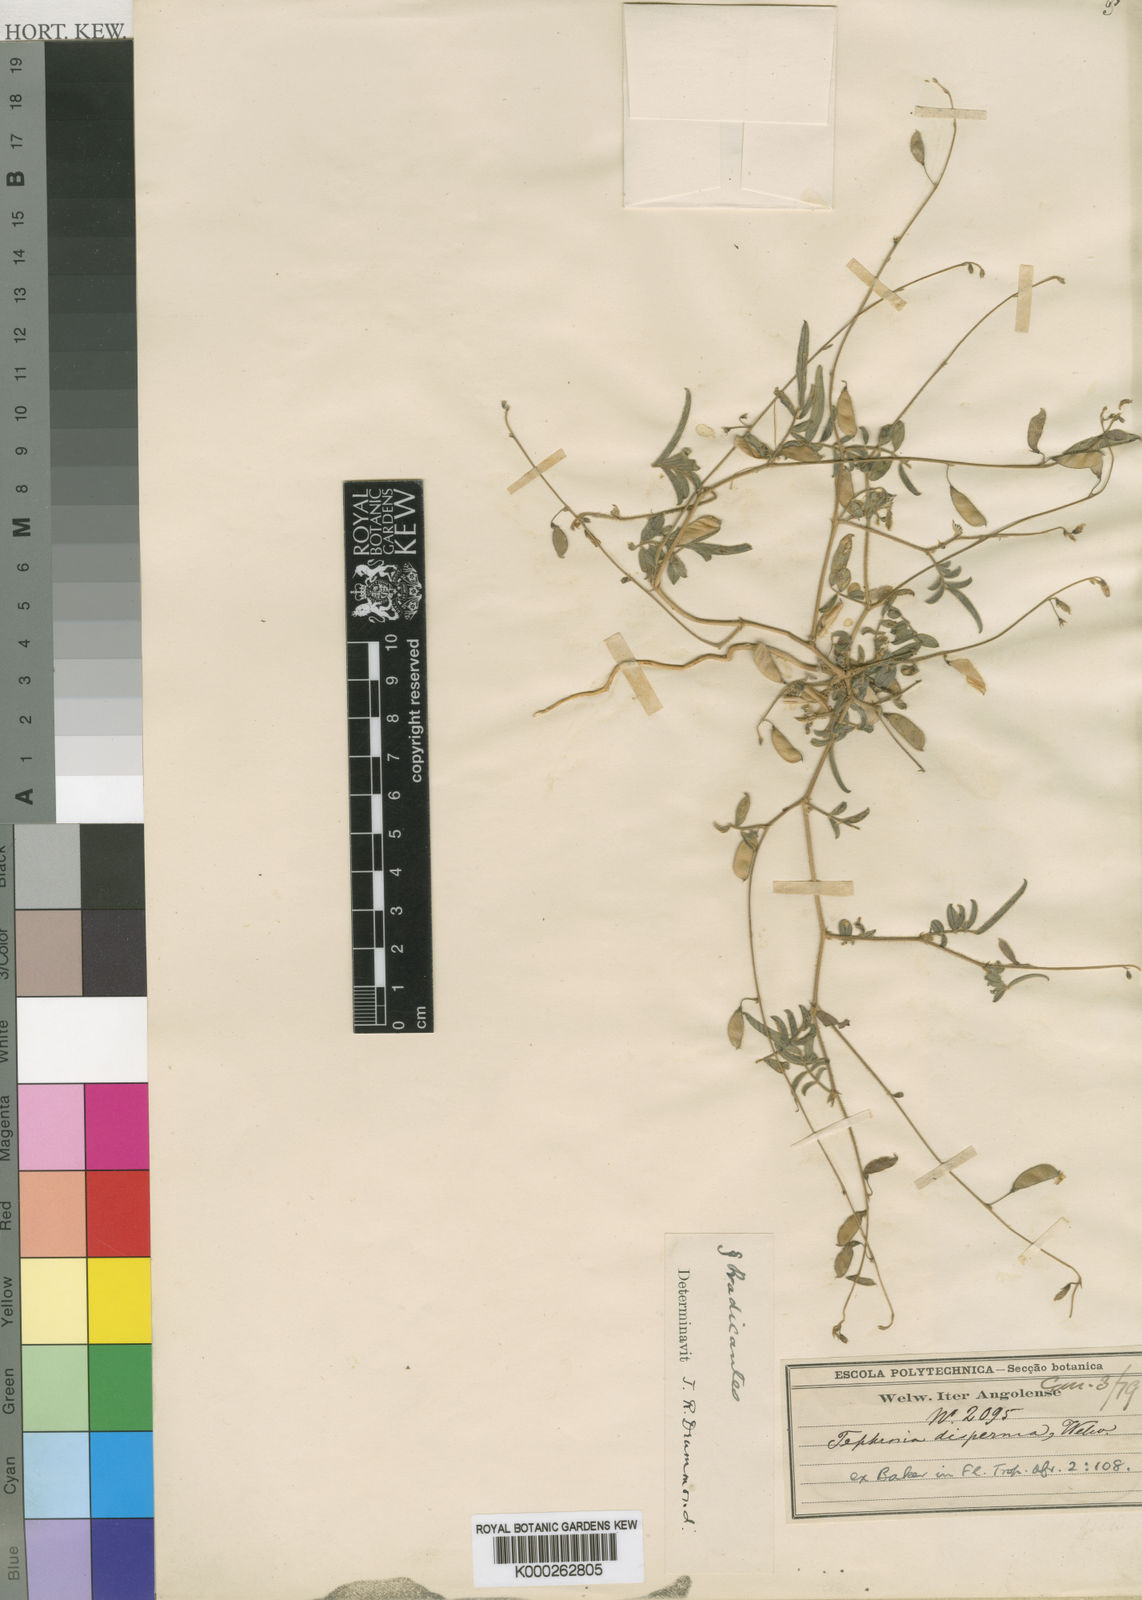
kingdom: Plantae
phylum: Tracheophyta
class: Magnoliopsida
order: Fabales
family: Fabaceae
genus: Tephrosia
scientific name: Tephrosia disperma
